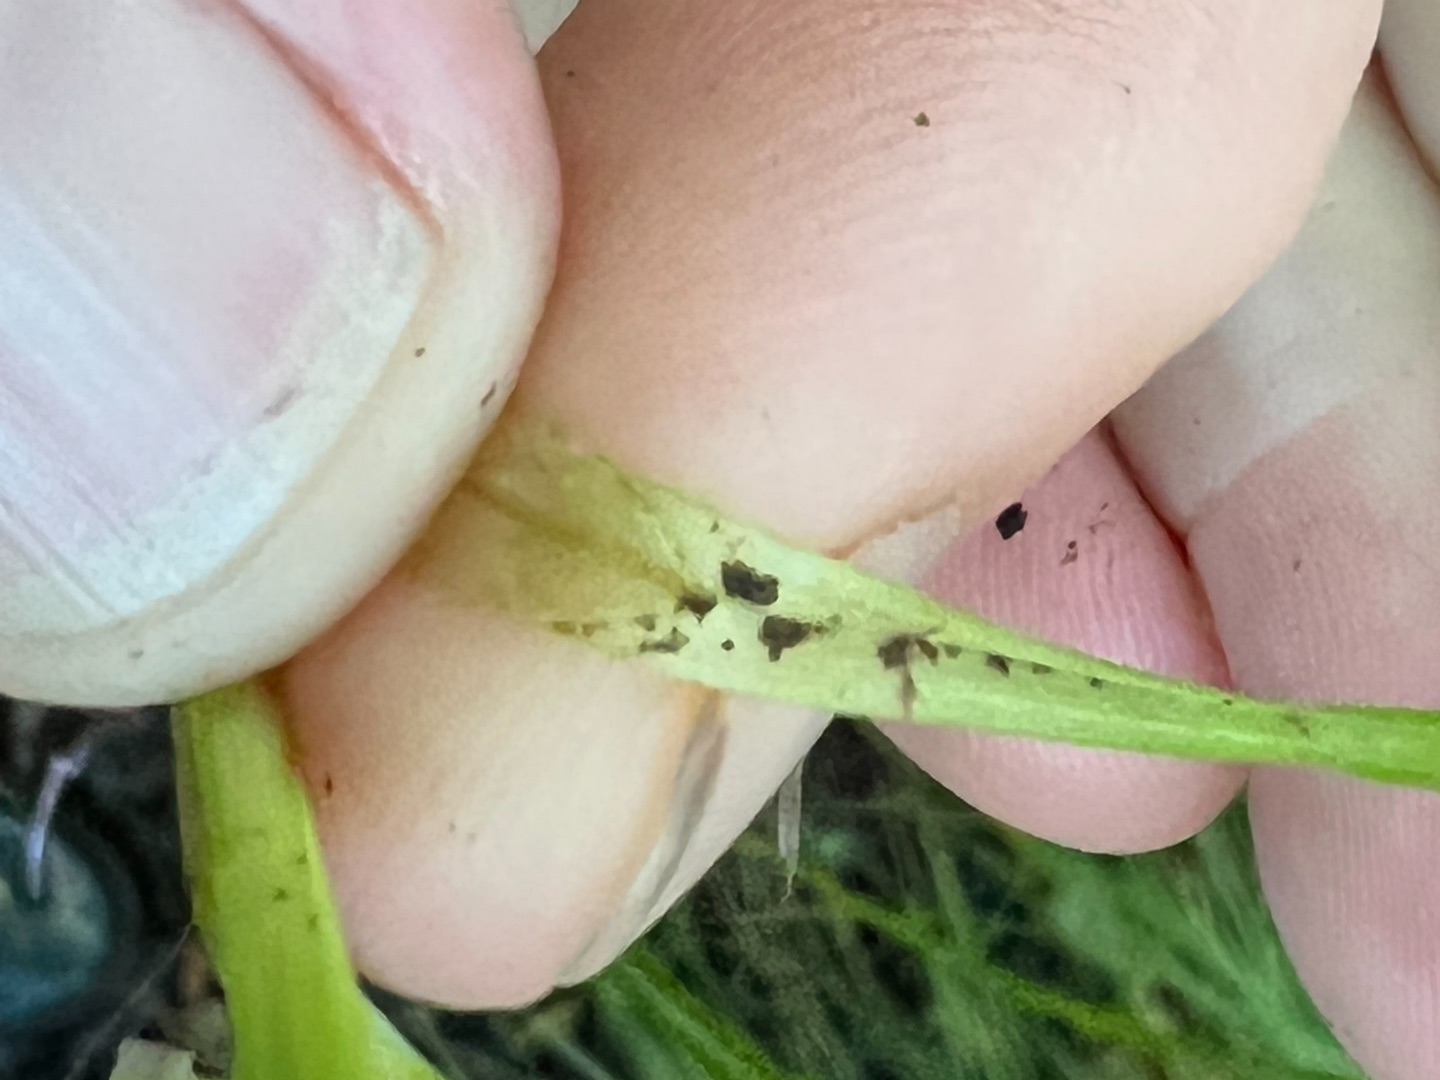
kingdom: Plantae
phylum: Tracheophyta
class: Liliopsida
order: Poales
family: Cyperaceae
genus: Carex
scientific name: Carex elongata
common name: Forlænget star
